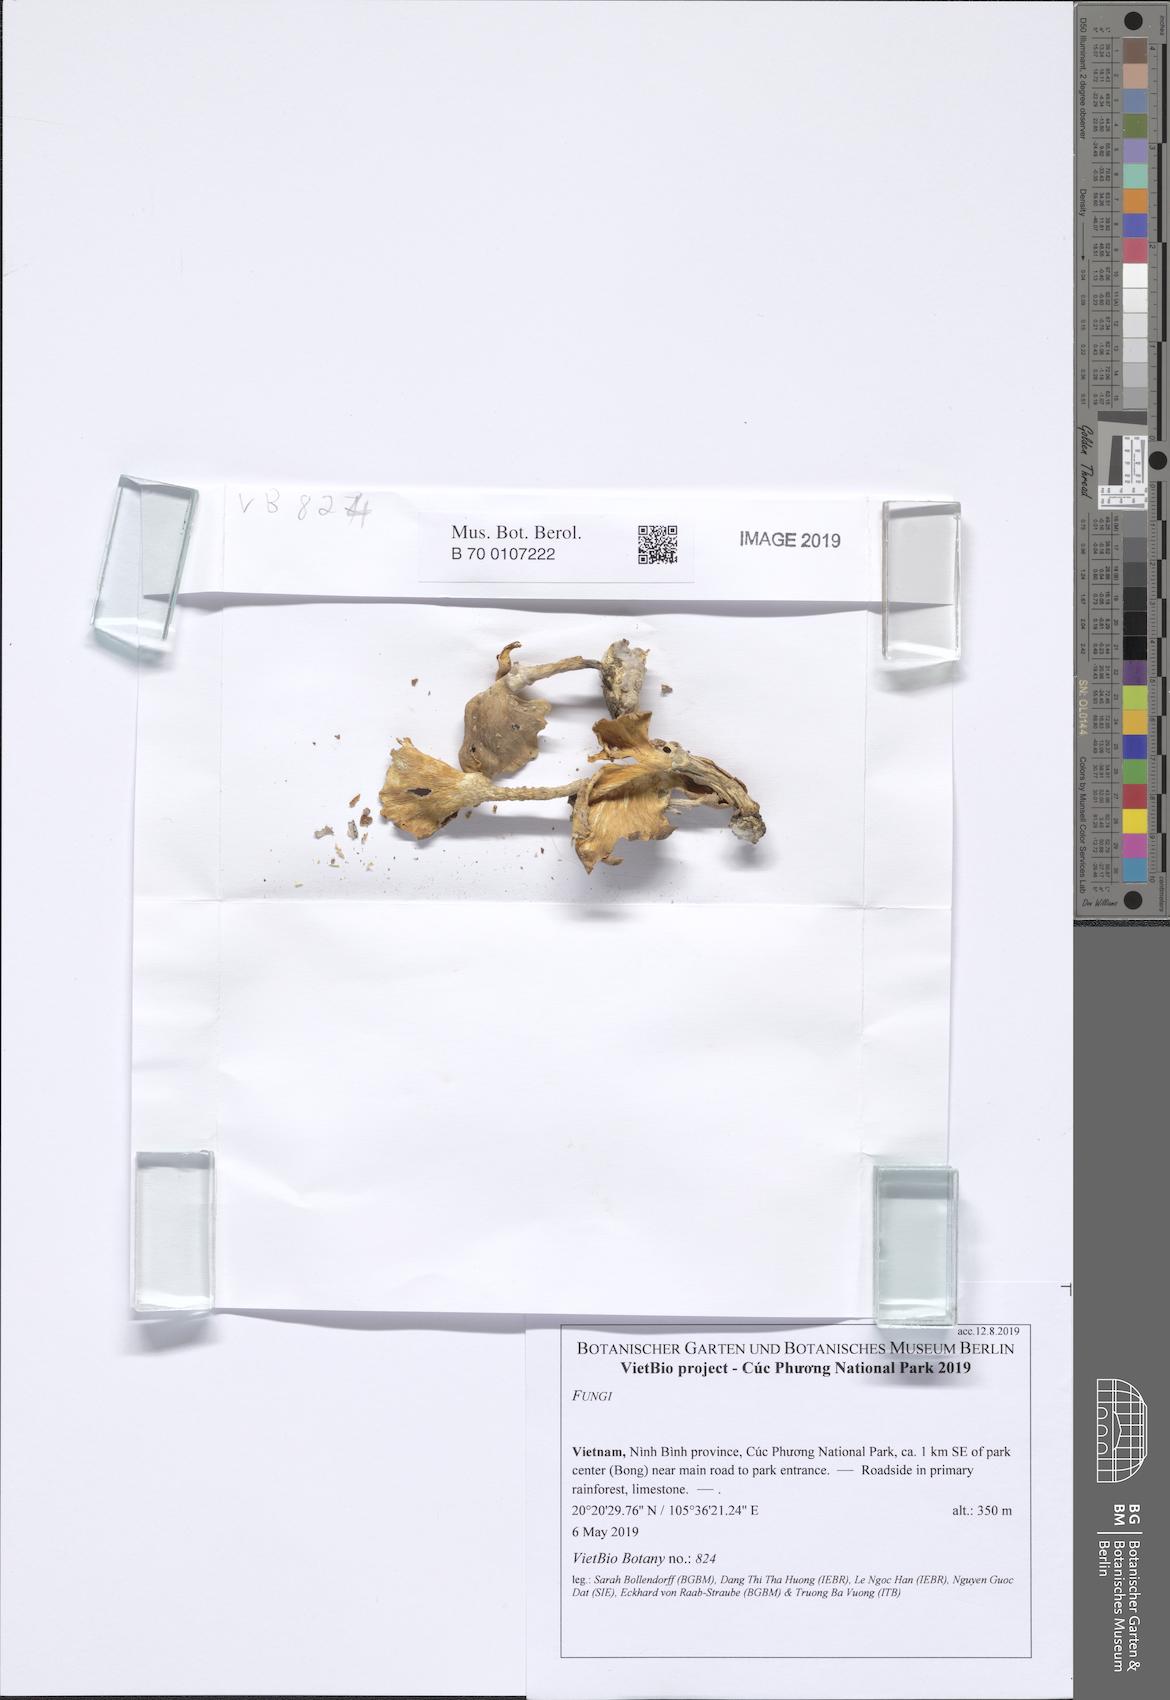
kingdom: Fungi
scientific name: Fungi
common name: Fungi
